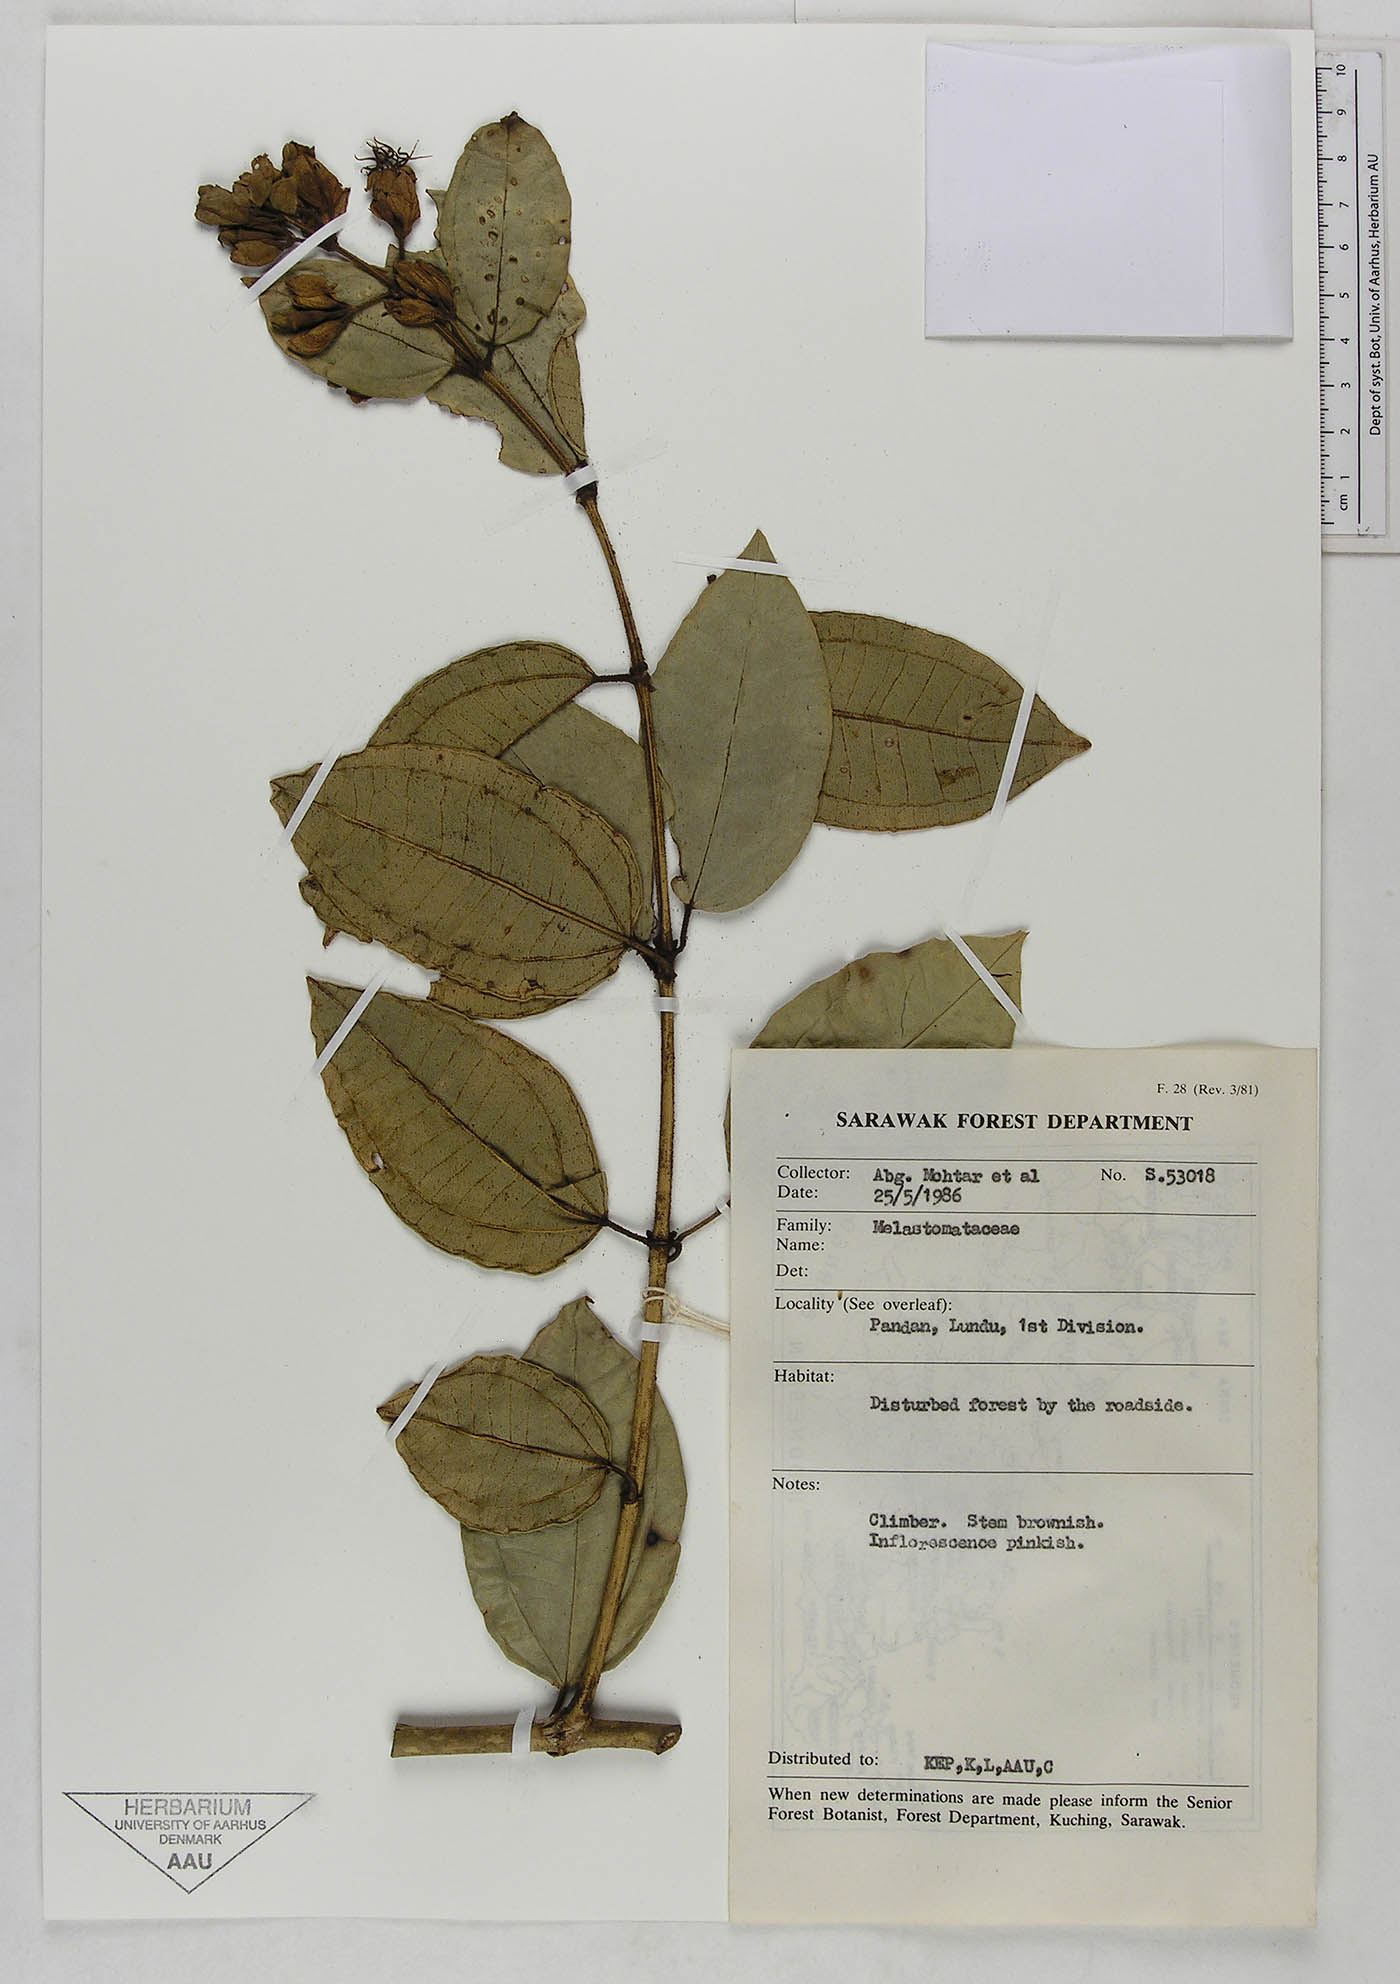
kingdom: Plantae
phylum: Tracheophyta
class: Magnoliopsida
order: Myrtales
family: Melastomataceae
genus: Macrolenes
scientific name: Macrolenes
